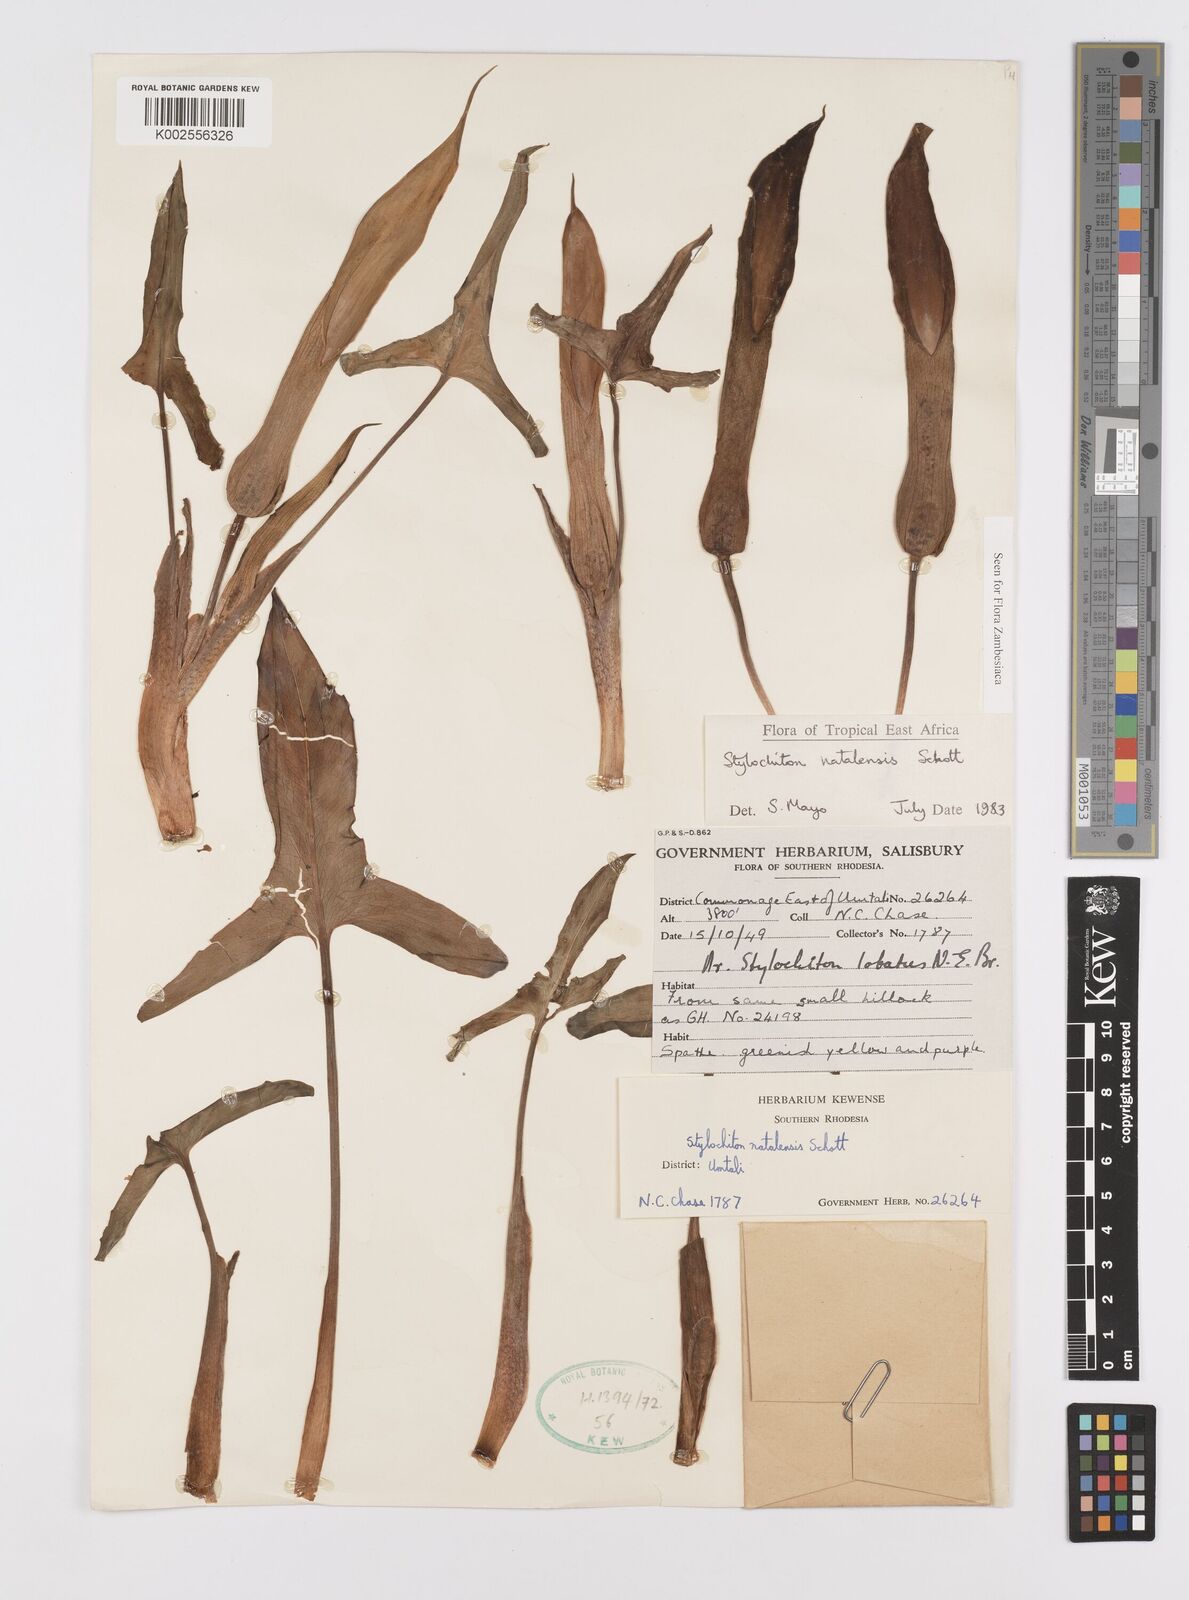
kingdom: Plantae
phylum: Tracheophyta
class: Liliopsida
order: Alismatales
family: Araceae
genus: Stylochaeton
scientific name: Stylochaeton natalense
